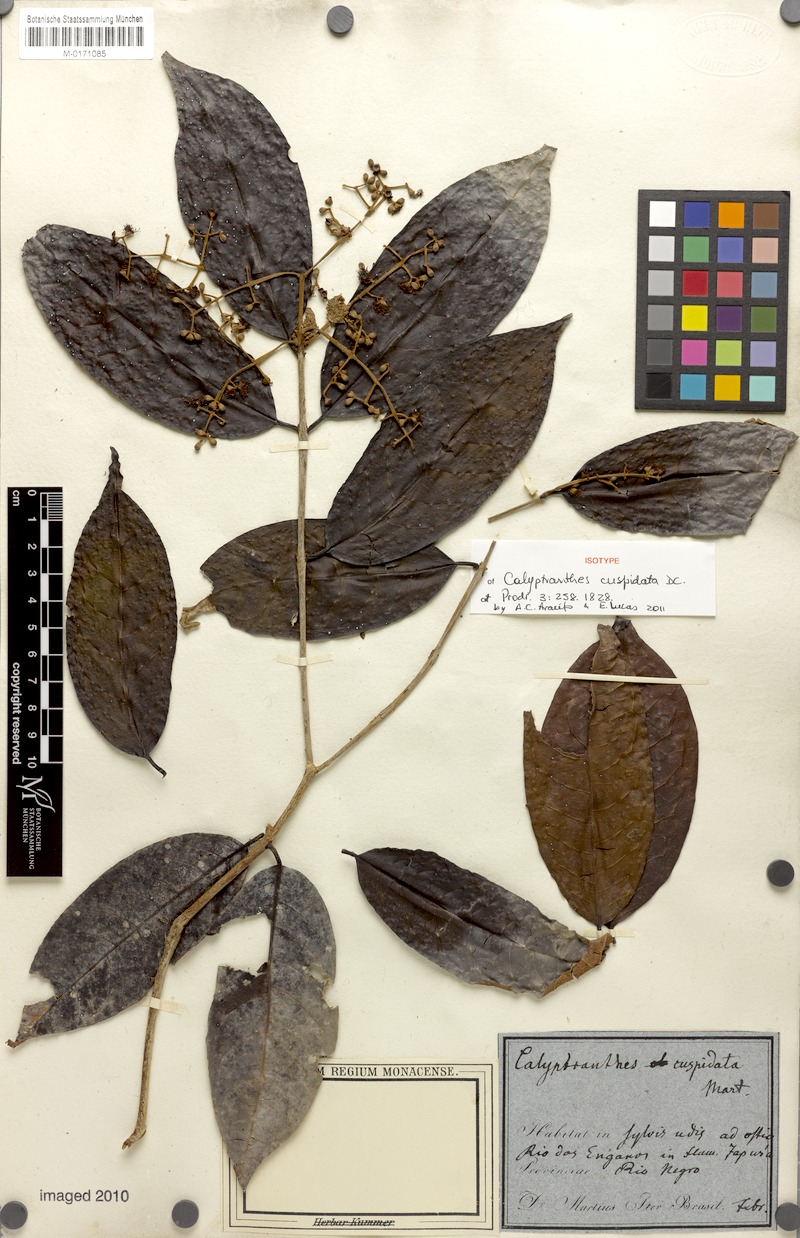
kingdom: Plantae
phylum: Tracheophyta
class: Magnoliopsida
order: Myrtales
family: Myrtaceae
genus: Myrcia
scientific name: Myrcia cuspidata
